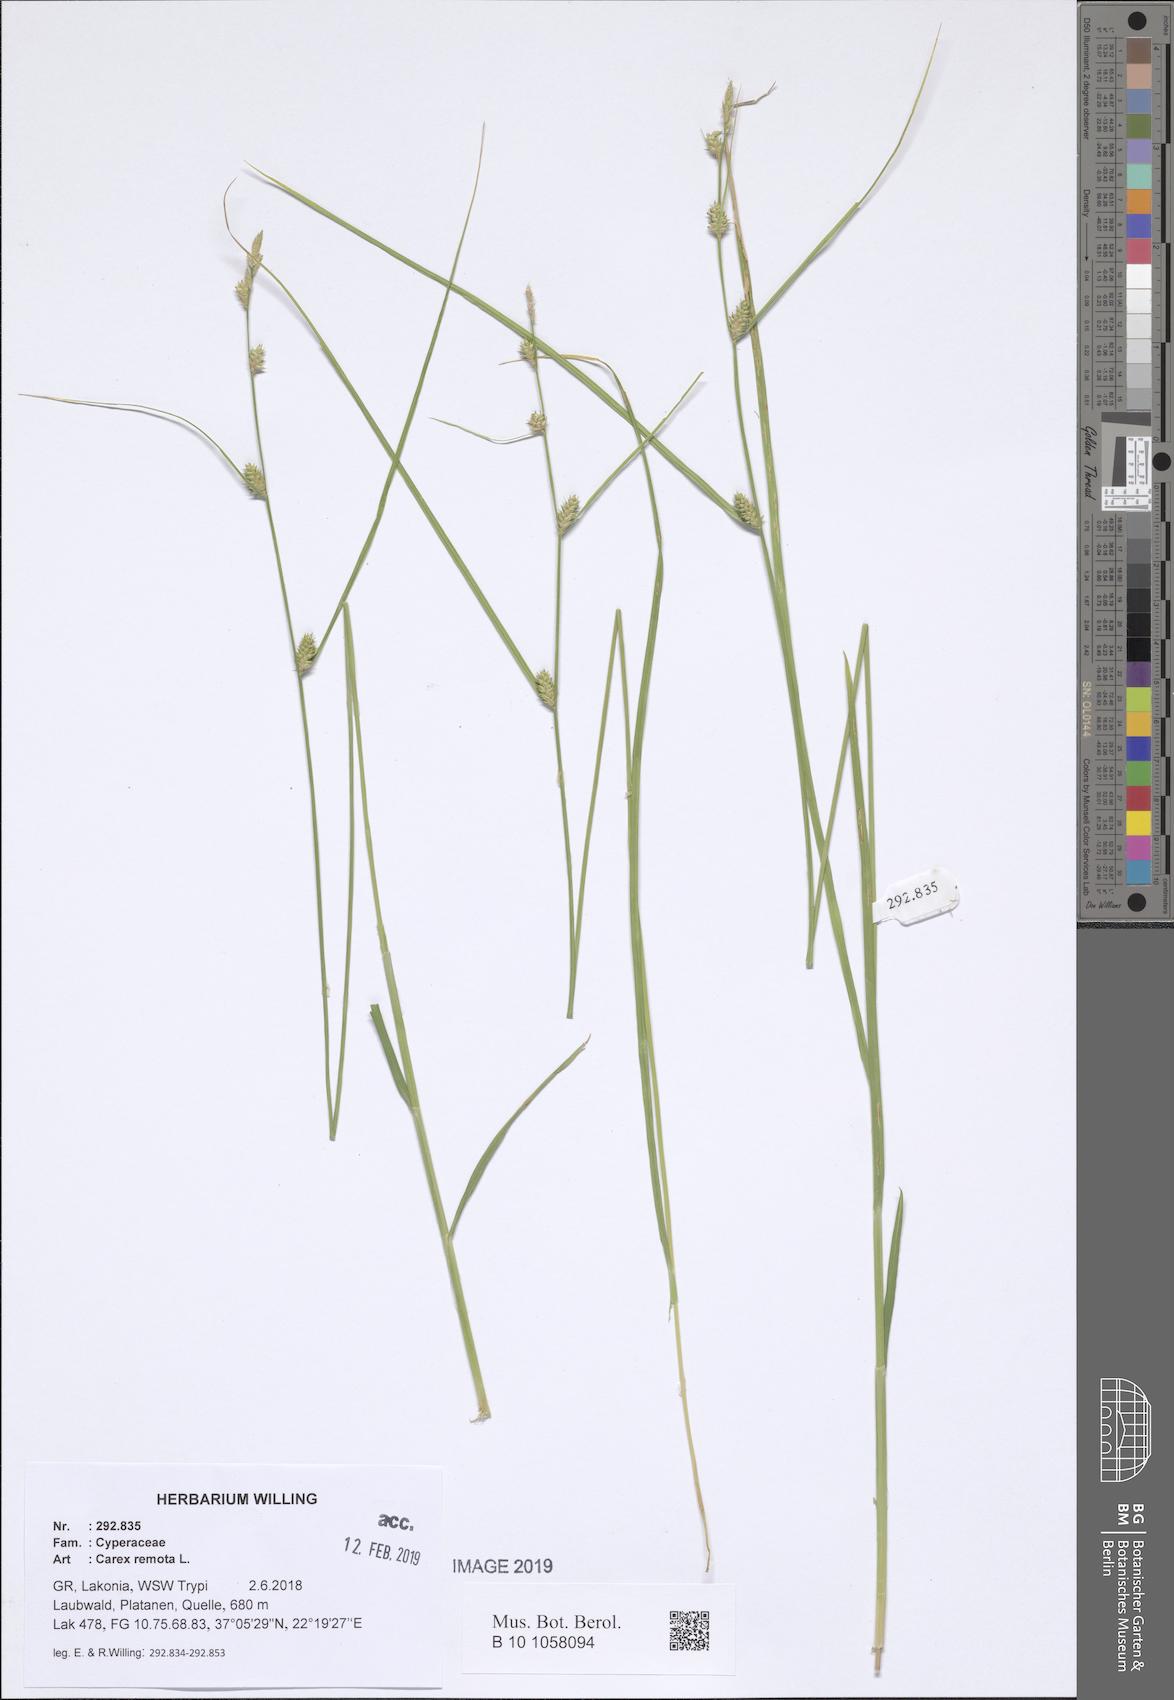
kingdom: Plantae
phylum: Tracheophyta
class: Liliopsida
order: Poales
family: Cyperaceae
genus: Carex
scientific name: Carex remota
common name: Remote sedge
